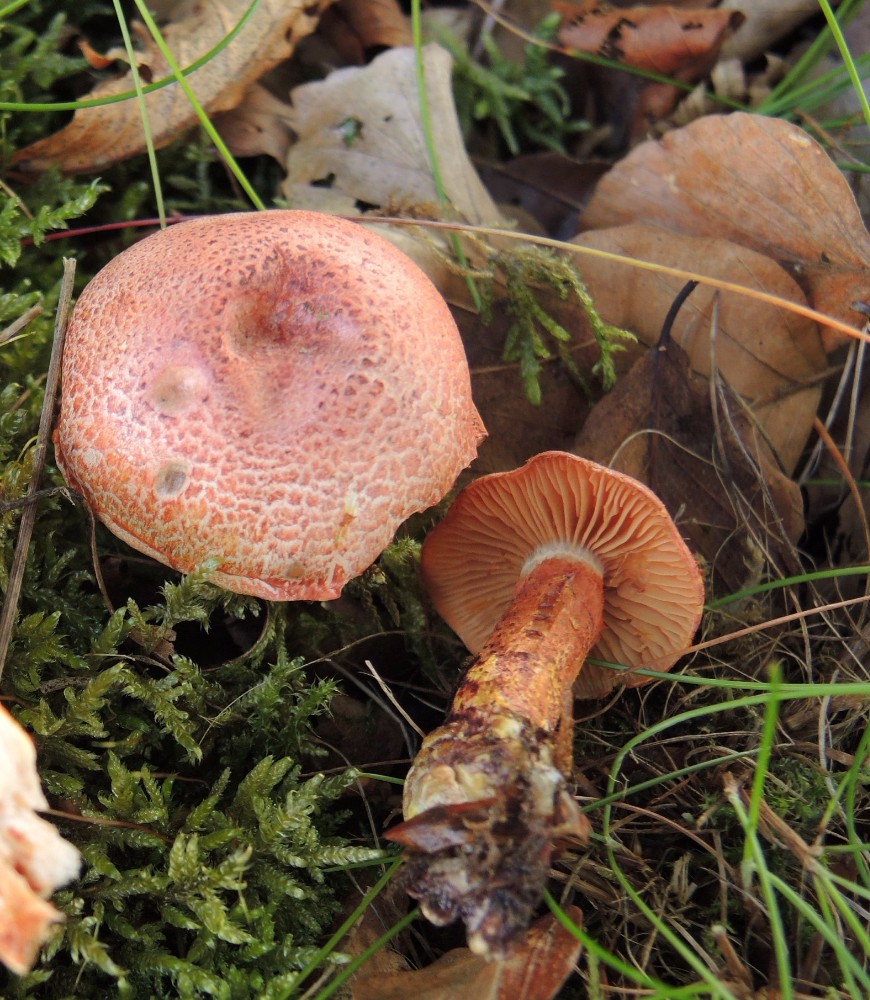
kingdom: Fungi
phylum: Basidiomycota
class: Agaricomycetes
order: Agaricales
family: Cortinariaceae
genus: Cortinarius
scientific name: Cortinarius bolaris
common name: cinnoberskællet slørhat
